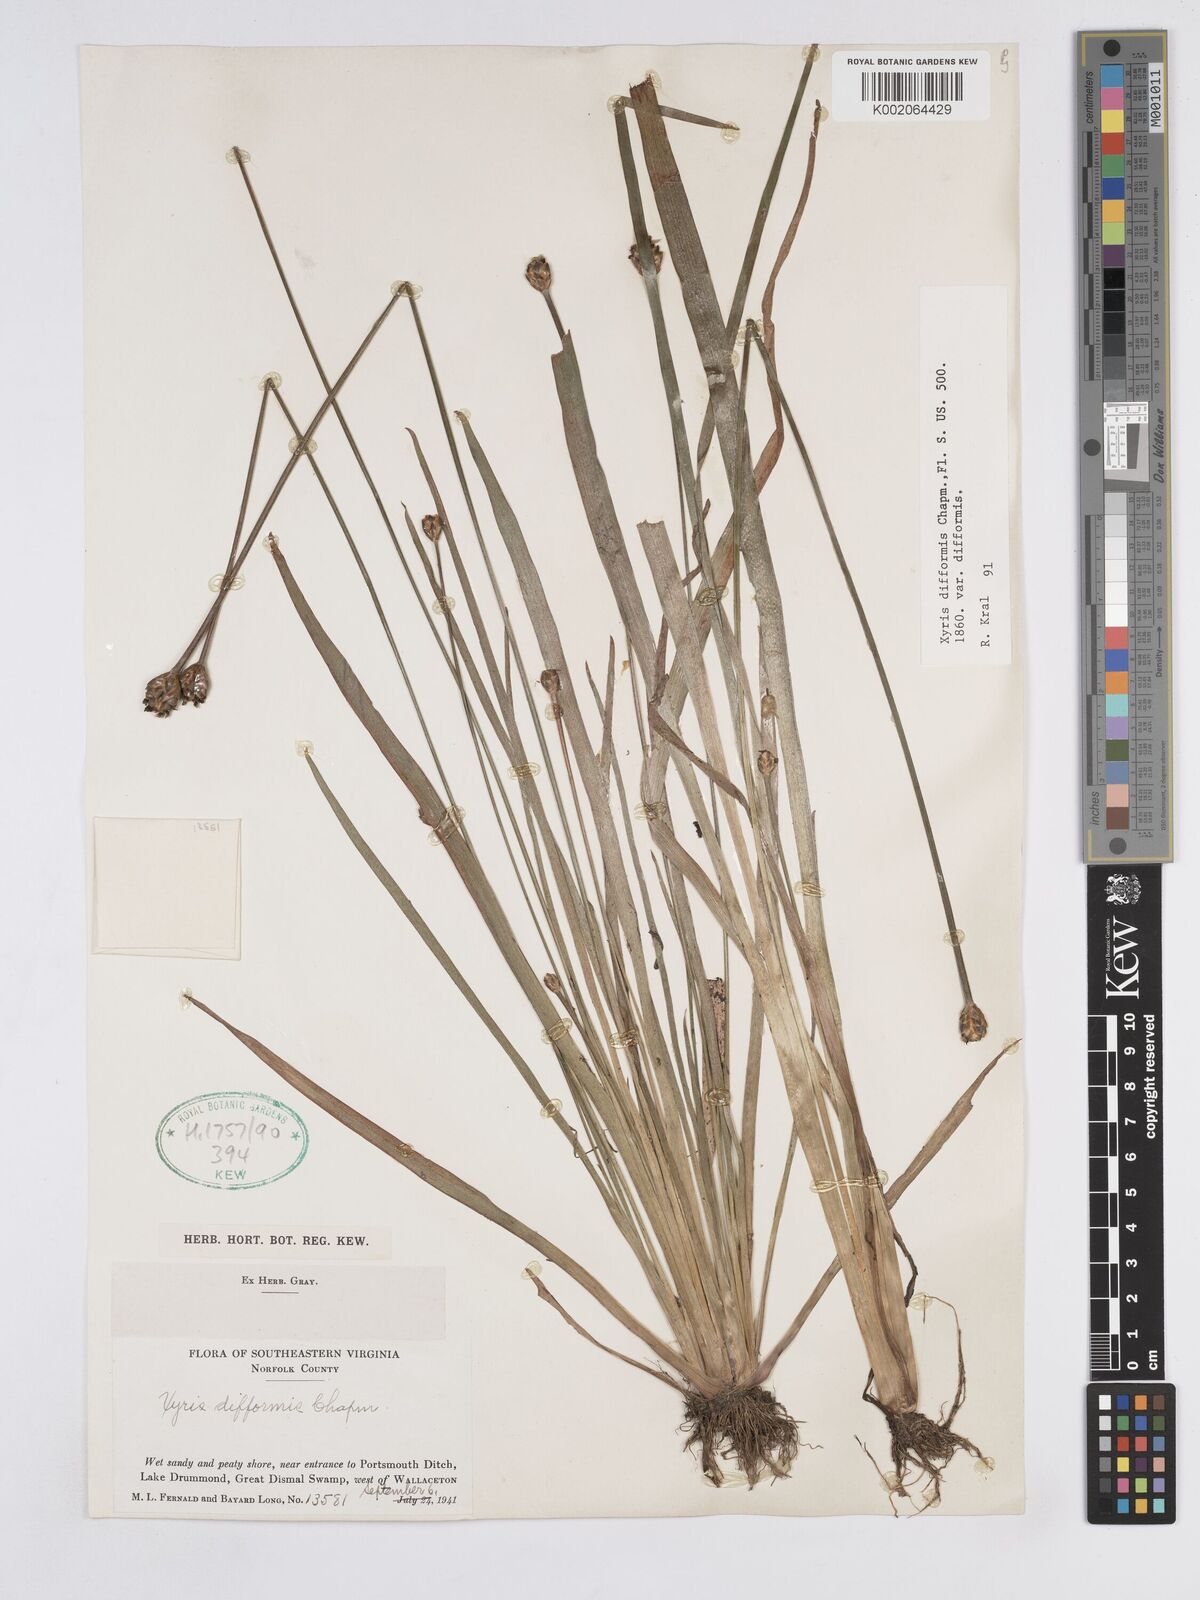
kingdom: Plantae
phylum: Tracheophyta
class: Liliopsida
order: Poales
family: Xyridaceae
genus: Xyris
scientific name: Xyris difformis
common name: Bog yellow-eyed-grass
